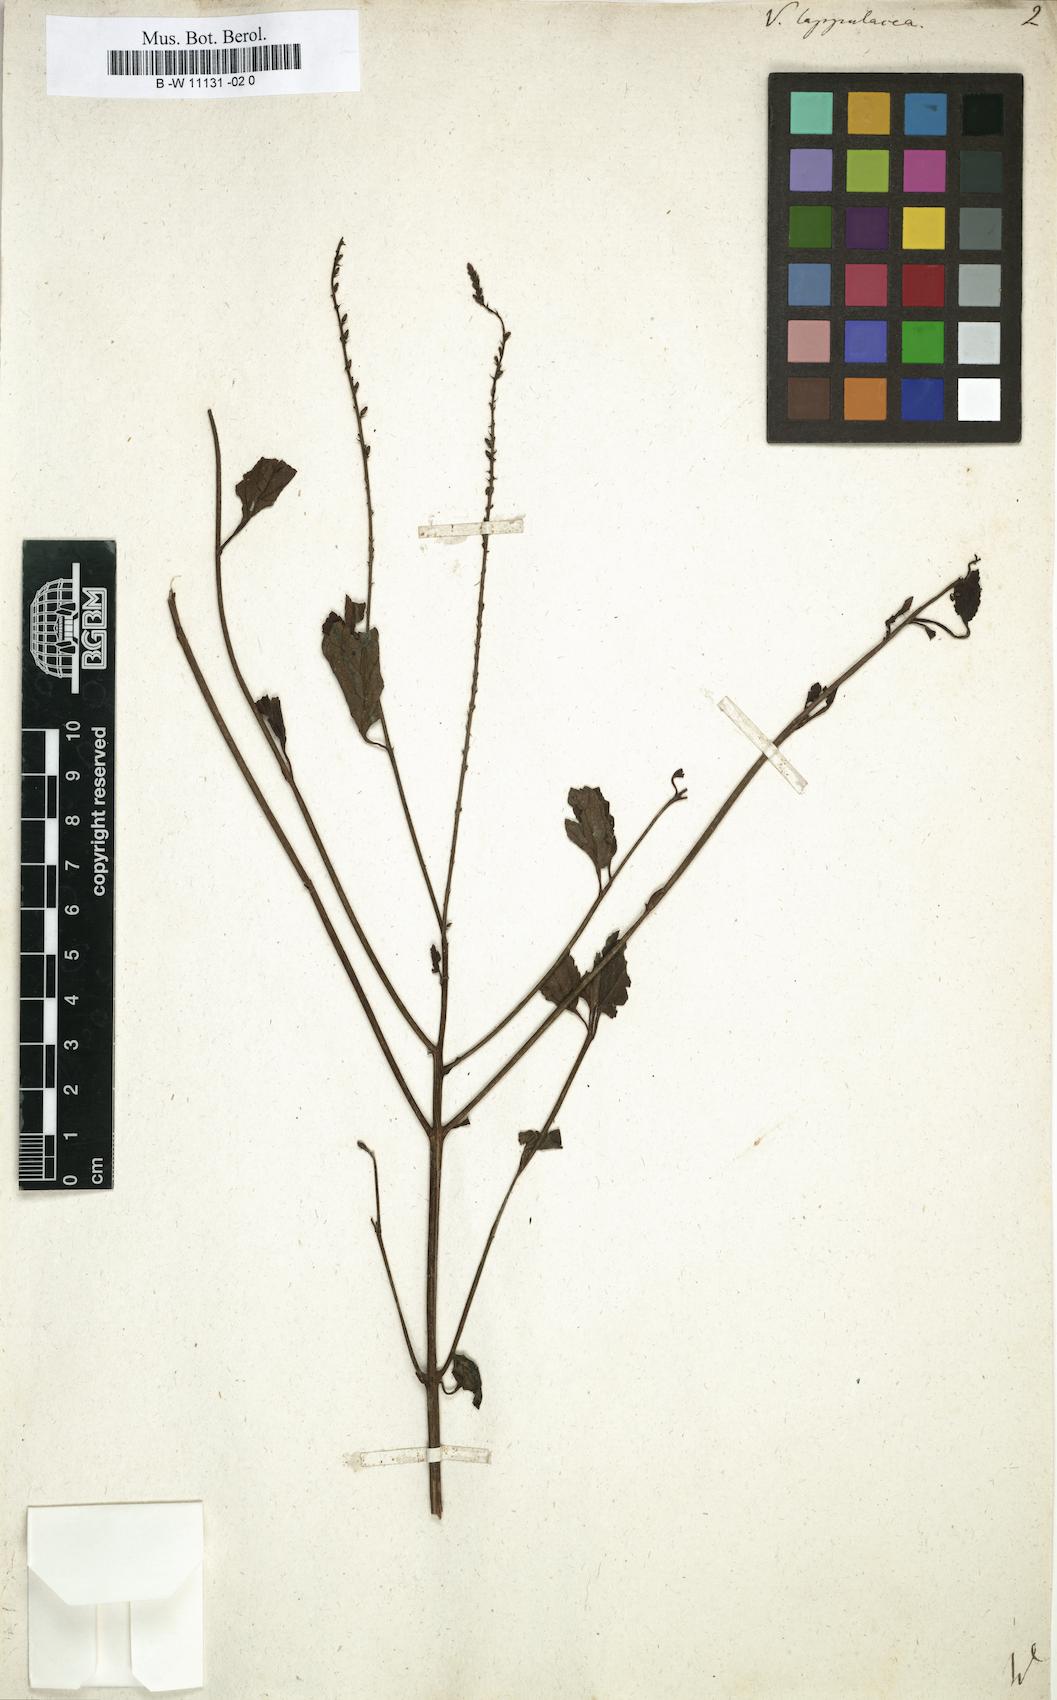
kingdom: Plantae
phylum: Tracheophyta
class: Magnoliopsida
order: Lamiales
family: Verbenaceae
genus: Priva
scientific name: Priva lappulacea
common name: Fasten-'pon-coat
